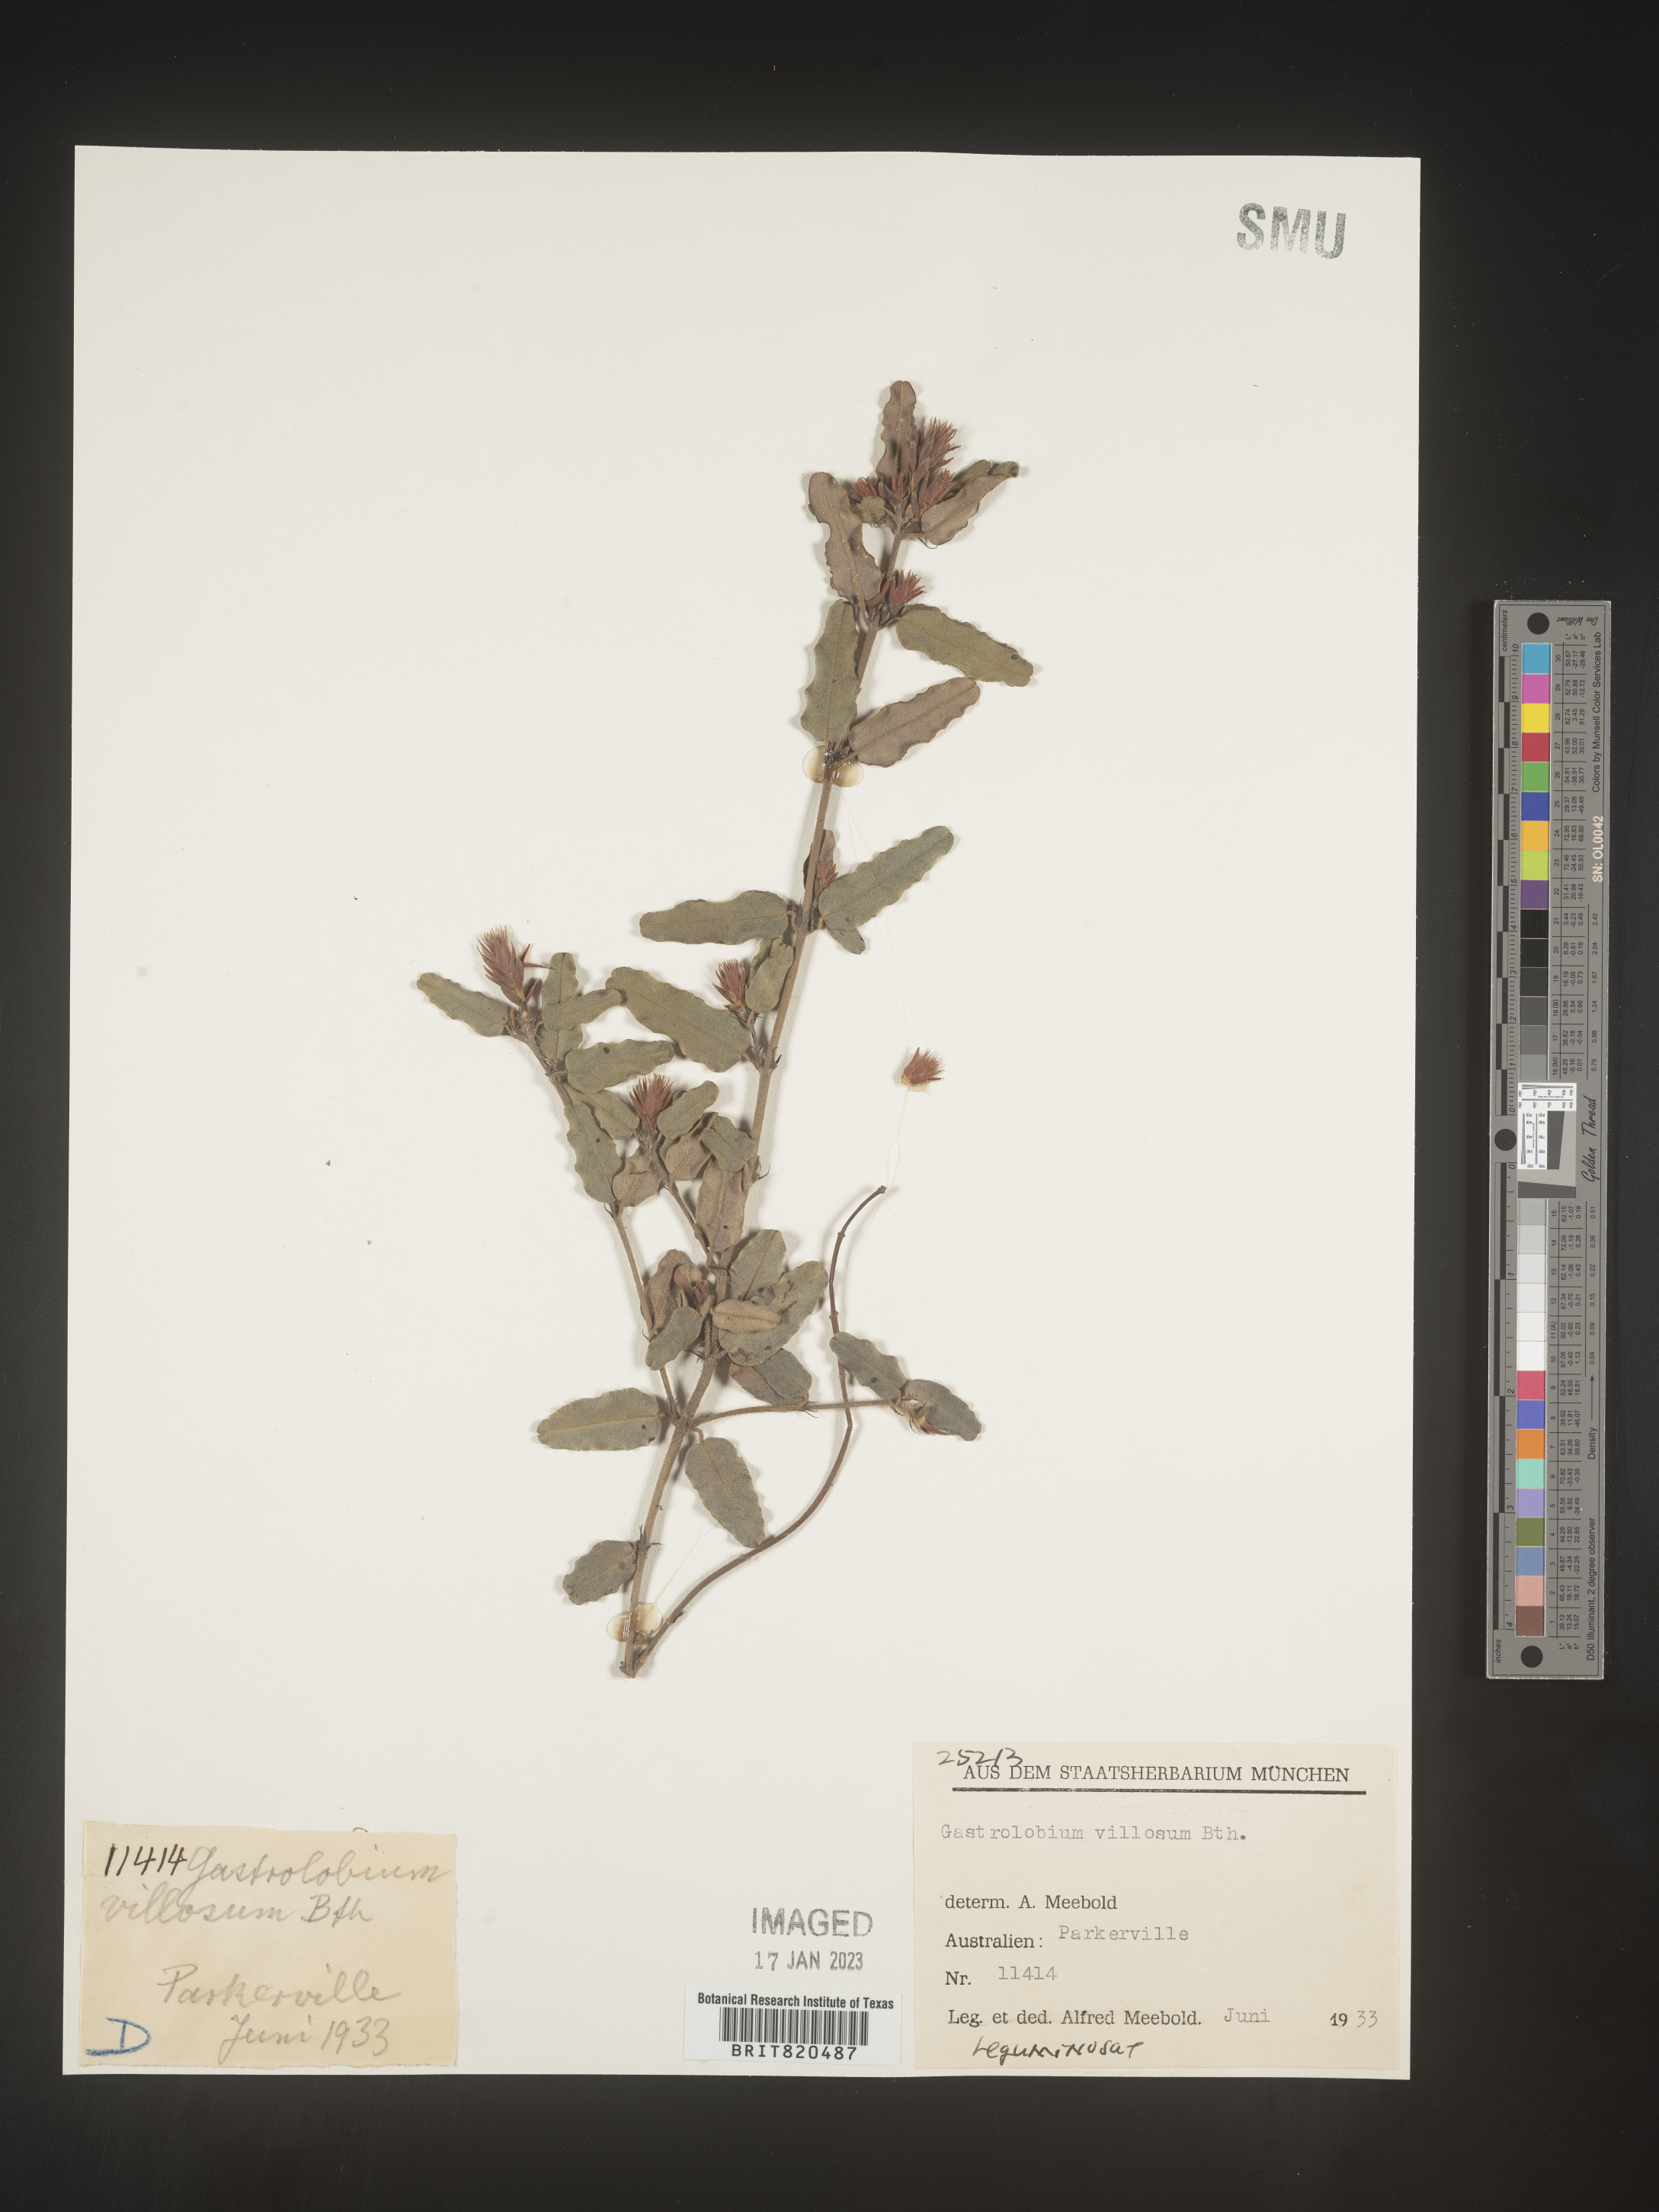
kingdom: Plantae
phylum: Tracheophyta
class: Magnoliopsida
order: Fabales
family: Fabaceae
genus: Gastrolobium
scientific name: Gastrolobium
